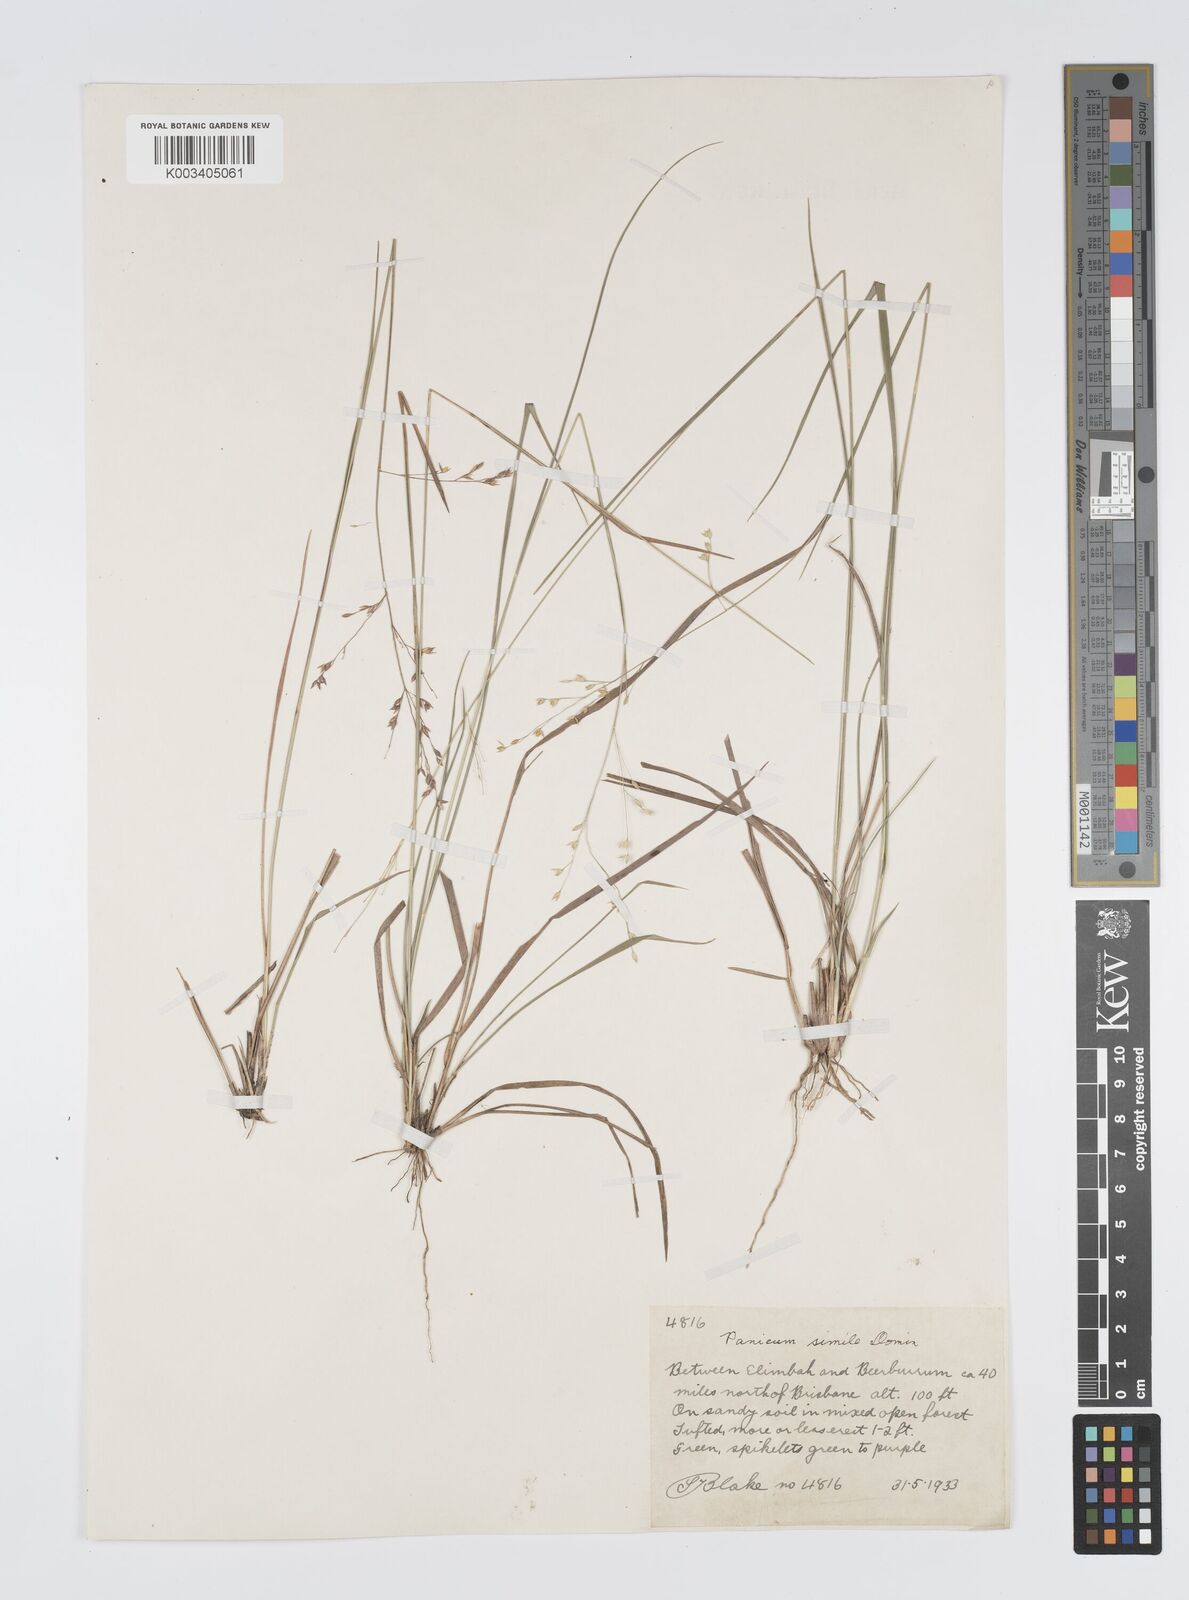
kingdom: Plantae
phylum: Tracheophyta
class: Liliopsida
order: Poales
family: Poaceae
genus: Panicum
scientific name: Panicum simile
